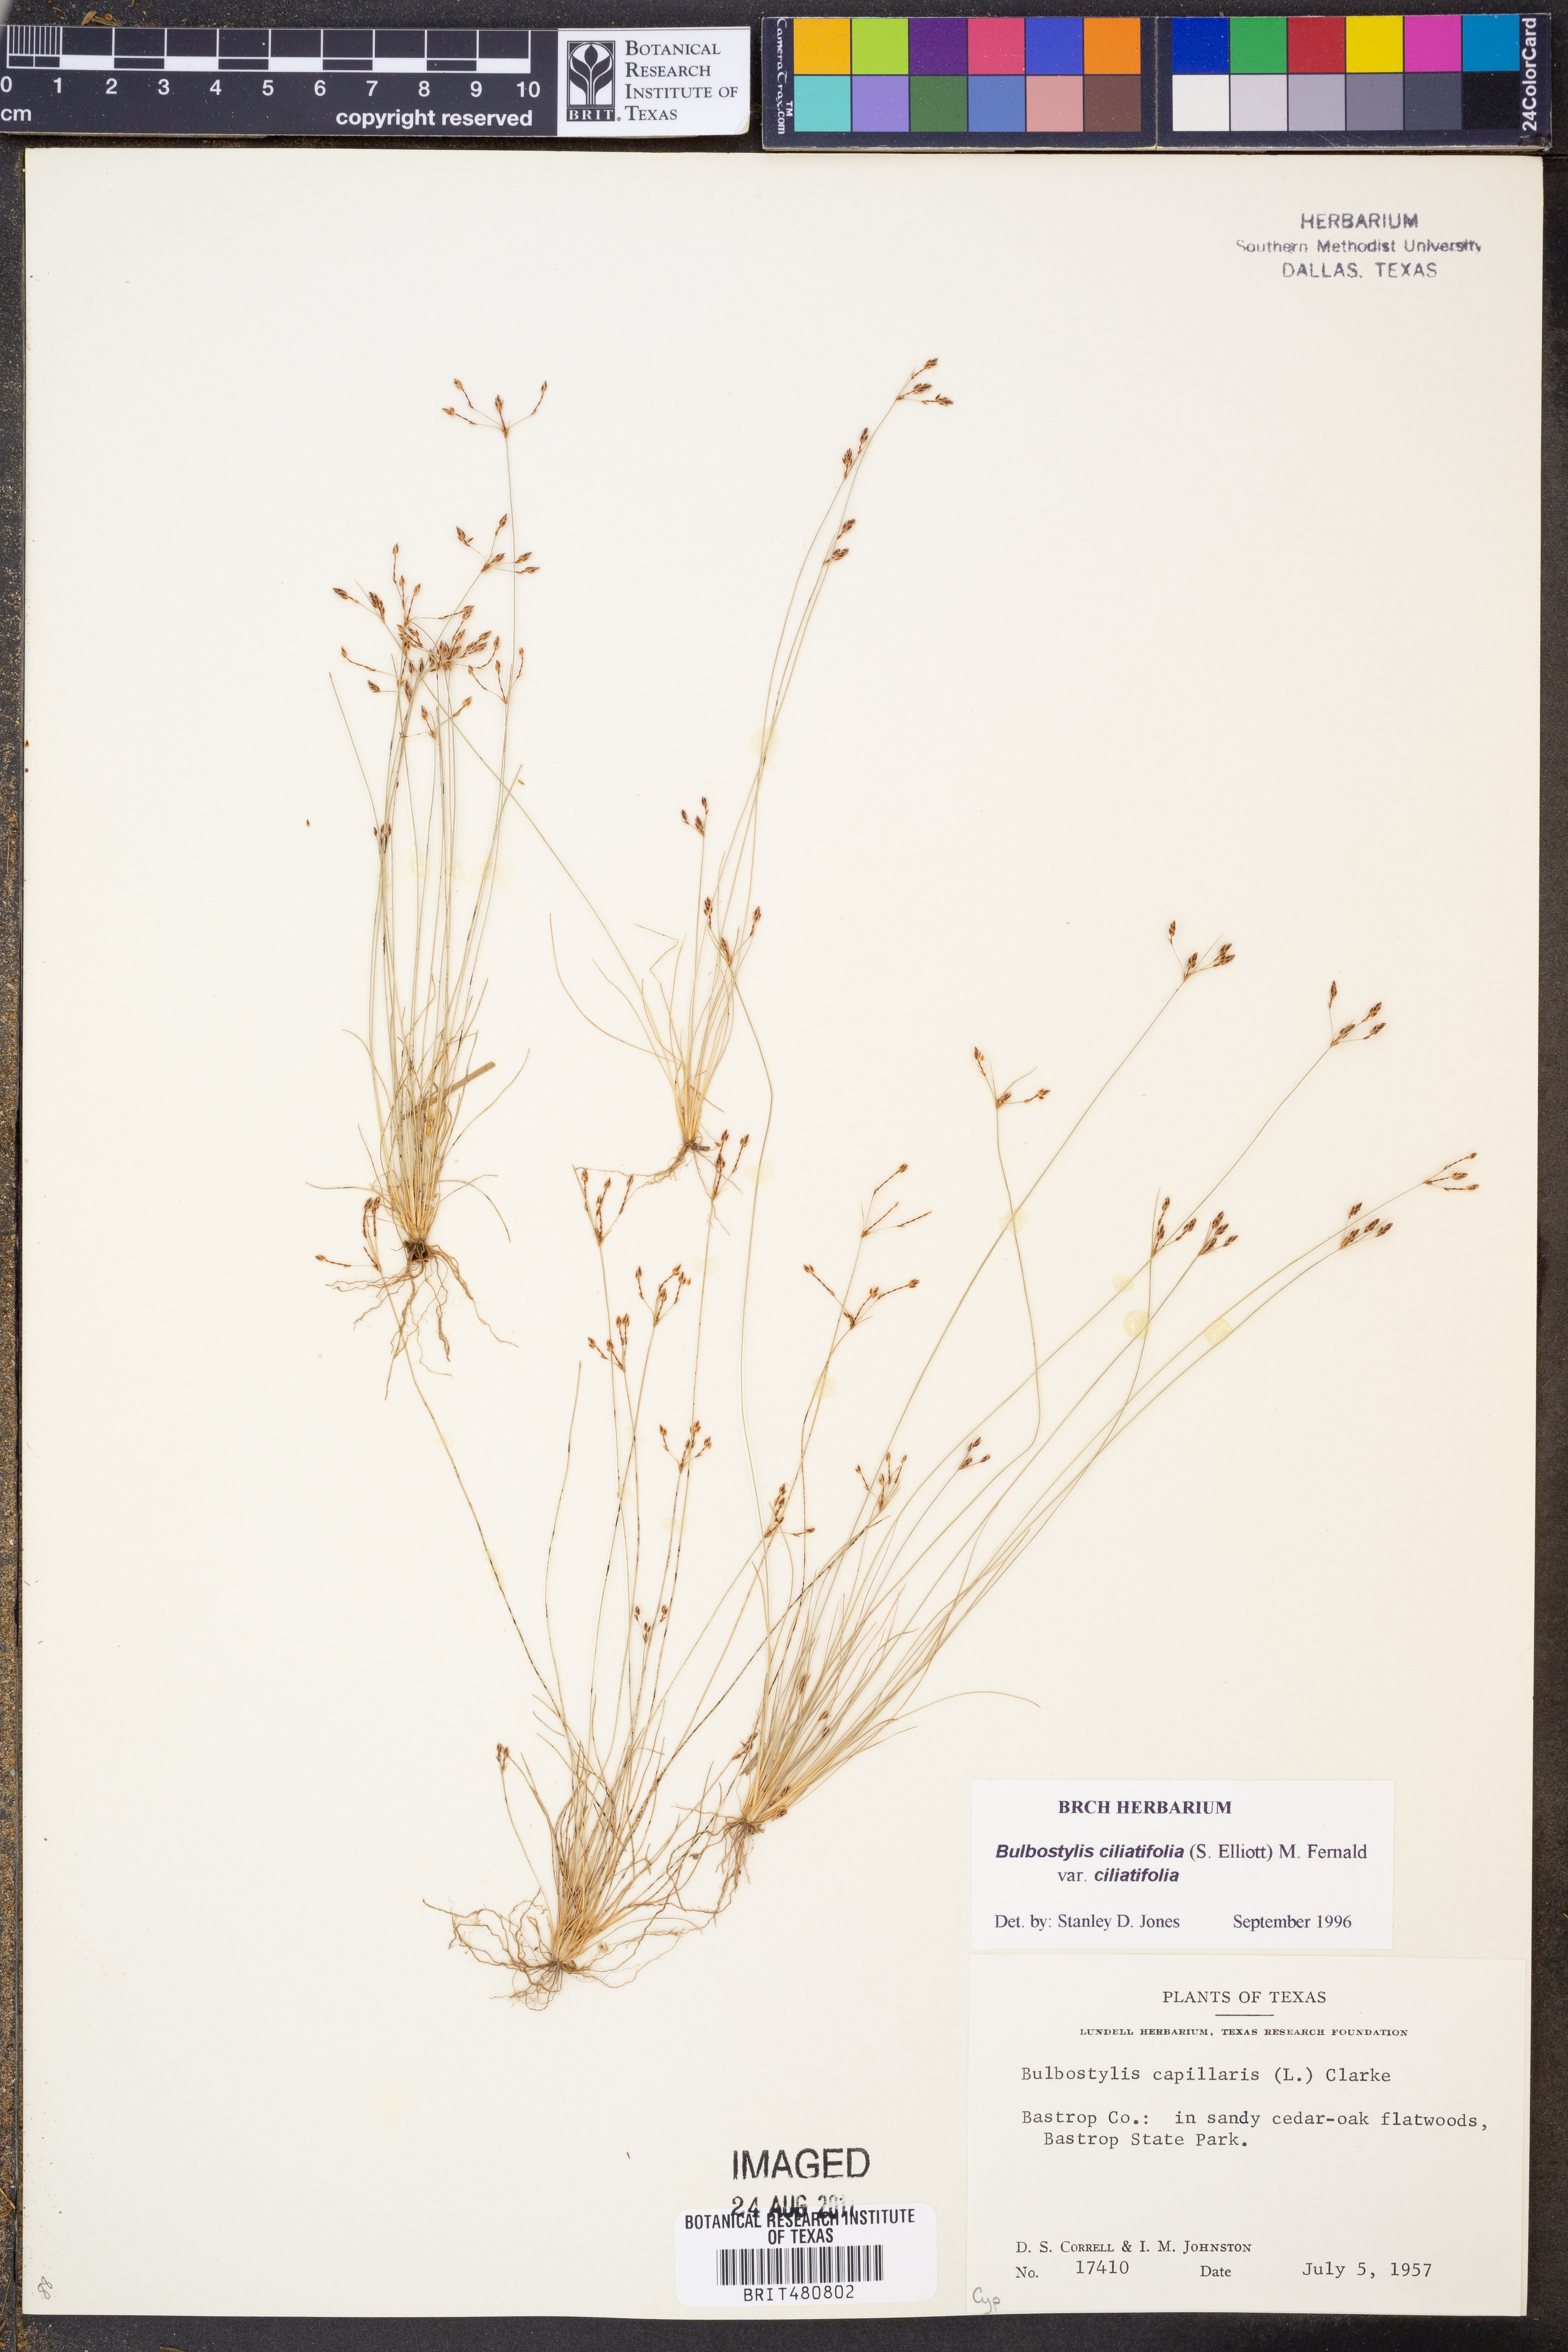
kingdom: Plantae
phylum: Tracheophyta
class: Liliopsida
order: Poales
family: Cyperaceae
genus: Bulbostylis
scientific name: Bulbostylis ciliatifolia
